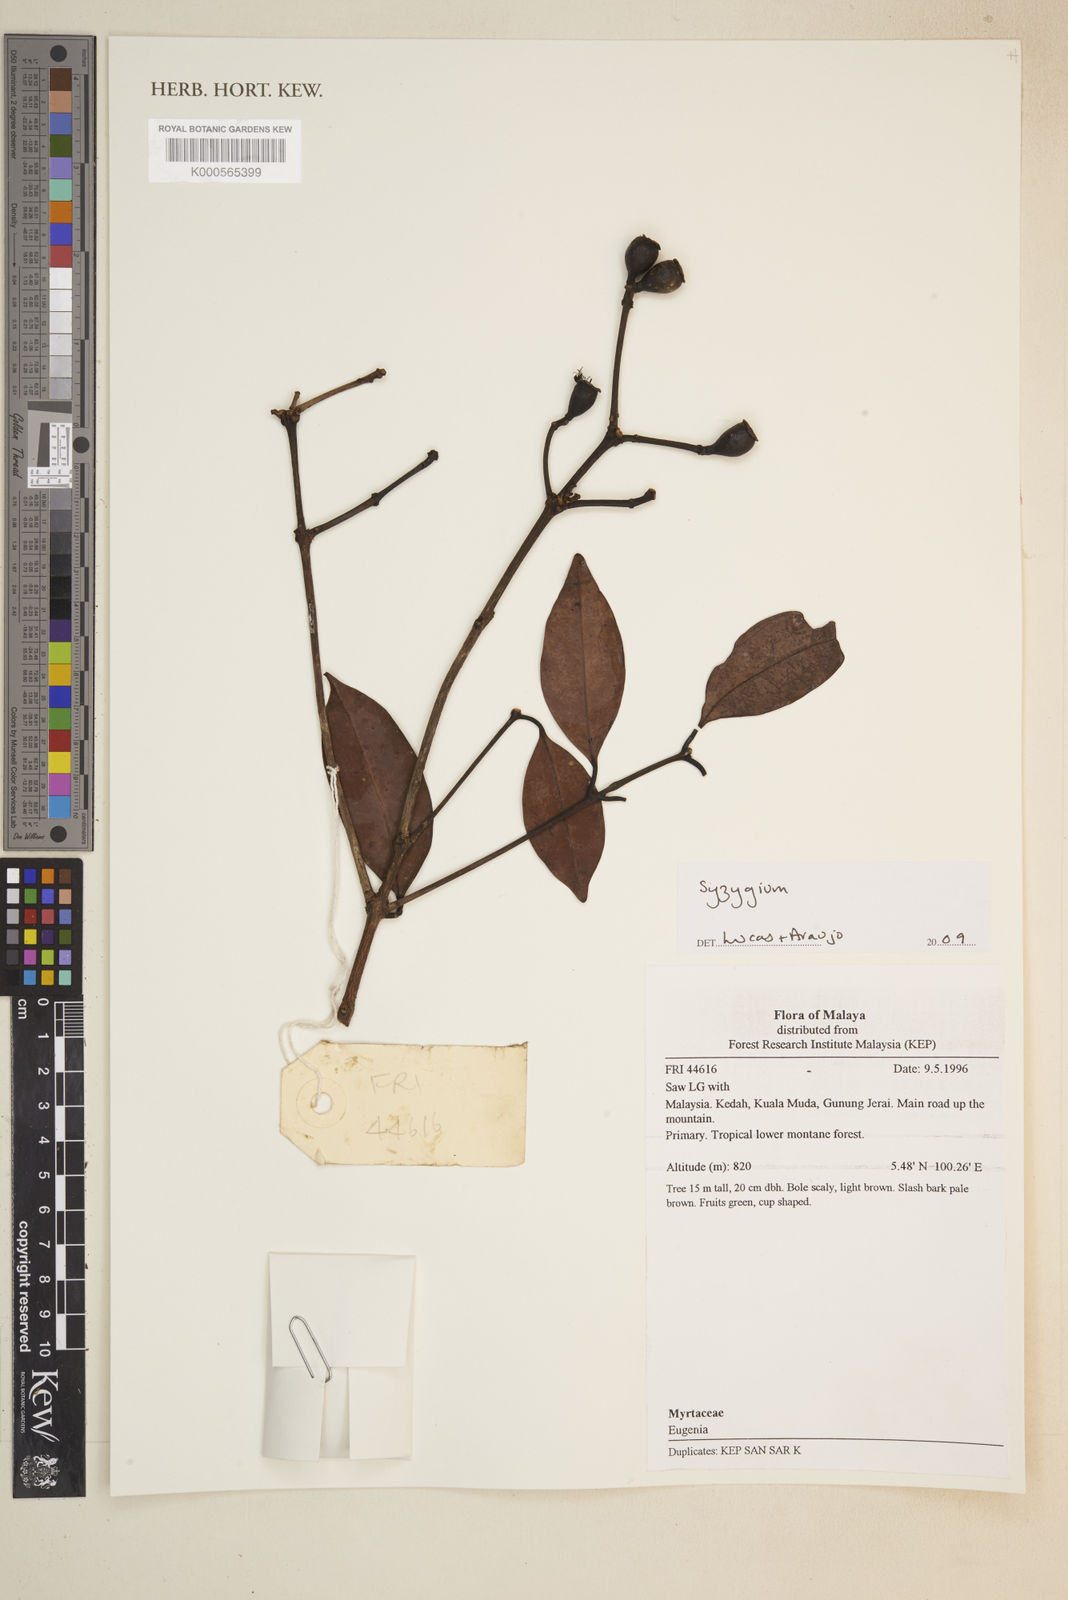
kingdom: Plantae
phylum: Tracheophyta
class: Magnoliopsida
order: Myrtales
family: Myrtaceae
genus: Syzygium
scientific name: Syzygium
